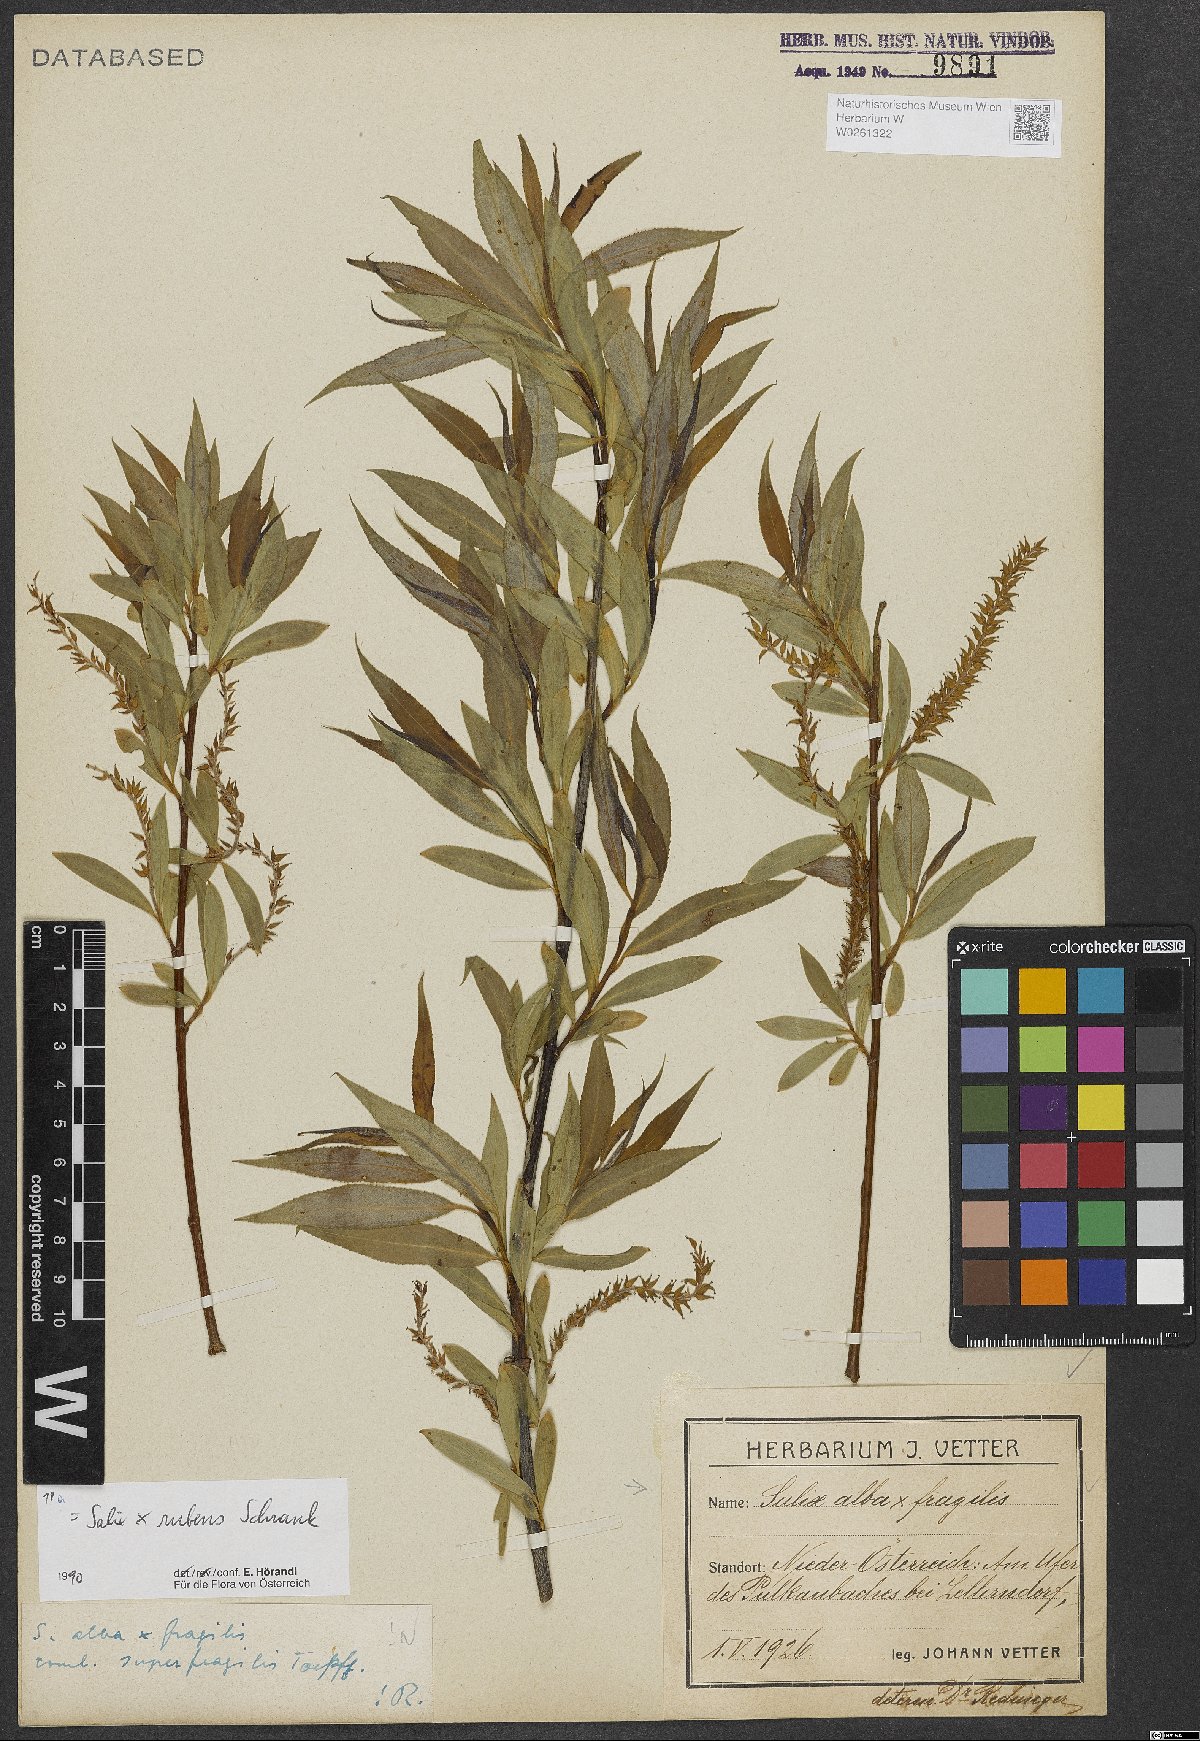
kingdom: Plantae
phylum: Tracheophyta
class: Magnoliopsida
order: Malpighiales
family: Salicaceae
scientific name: Salicaceae
